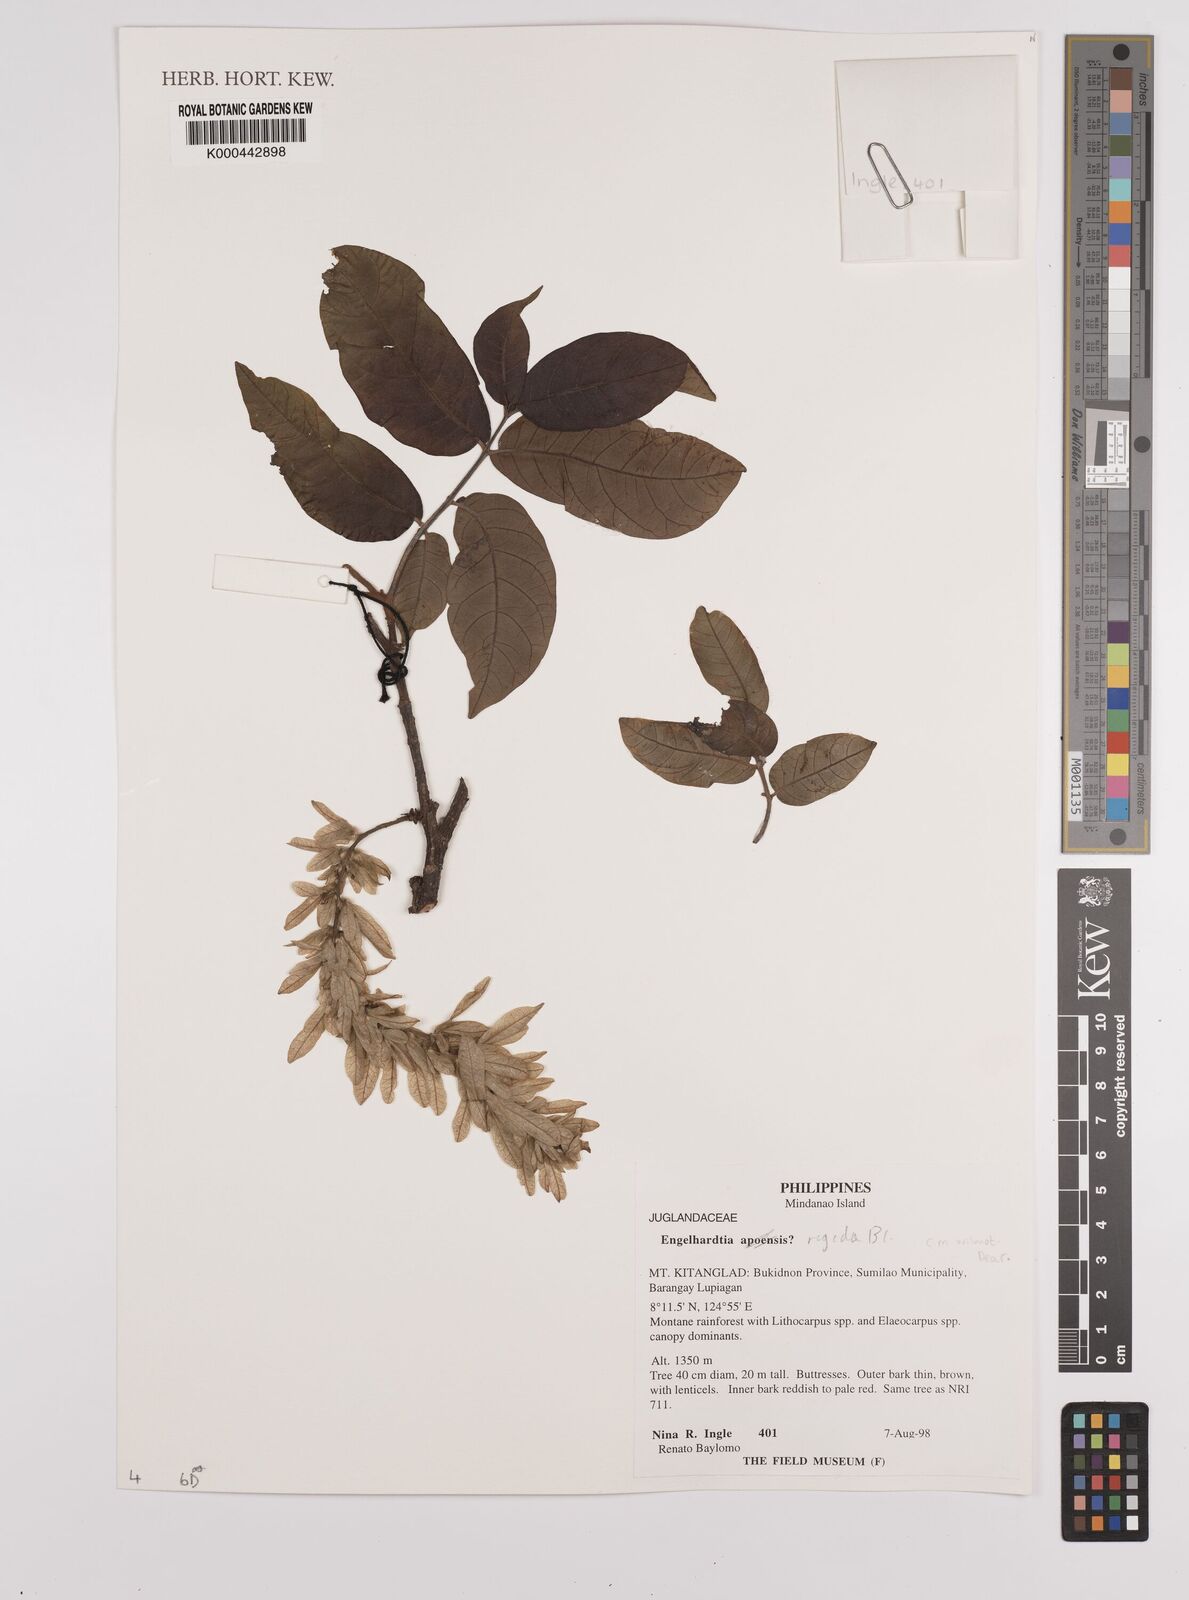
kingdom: Plantae
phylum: Tracheophyta
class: Magnoliopsida
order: Fagales
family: Juglandaceae
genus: Engelhardia
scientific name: Engelhardia rigida
